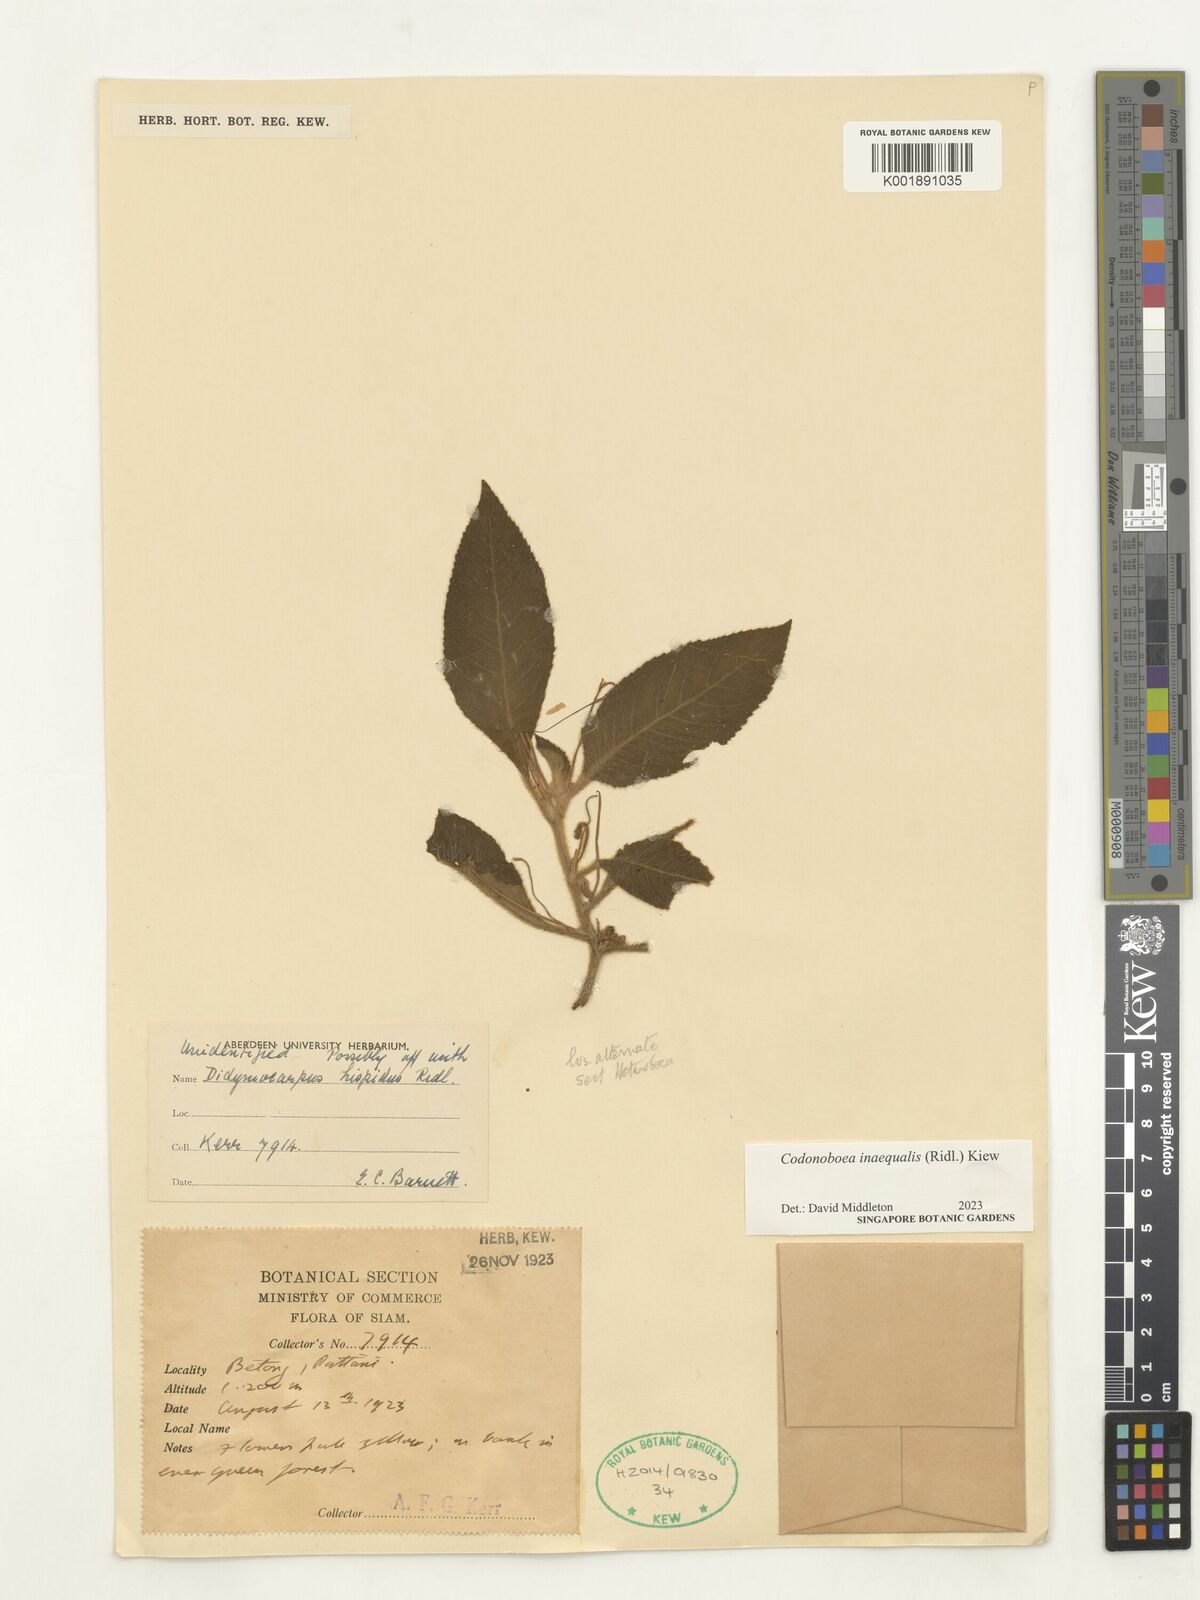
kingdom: Plantae
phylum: Tracheophyta
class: Magnoliopsida
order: Lamiales
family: Gesneriaceae
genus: Codonoboea
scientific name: Codonoboea inaequalis
